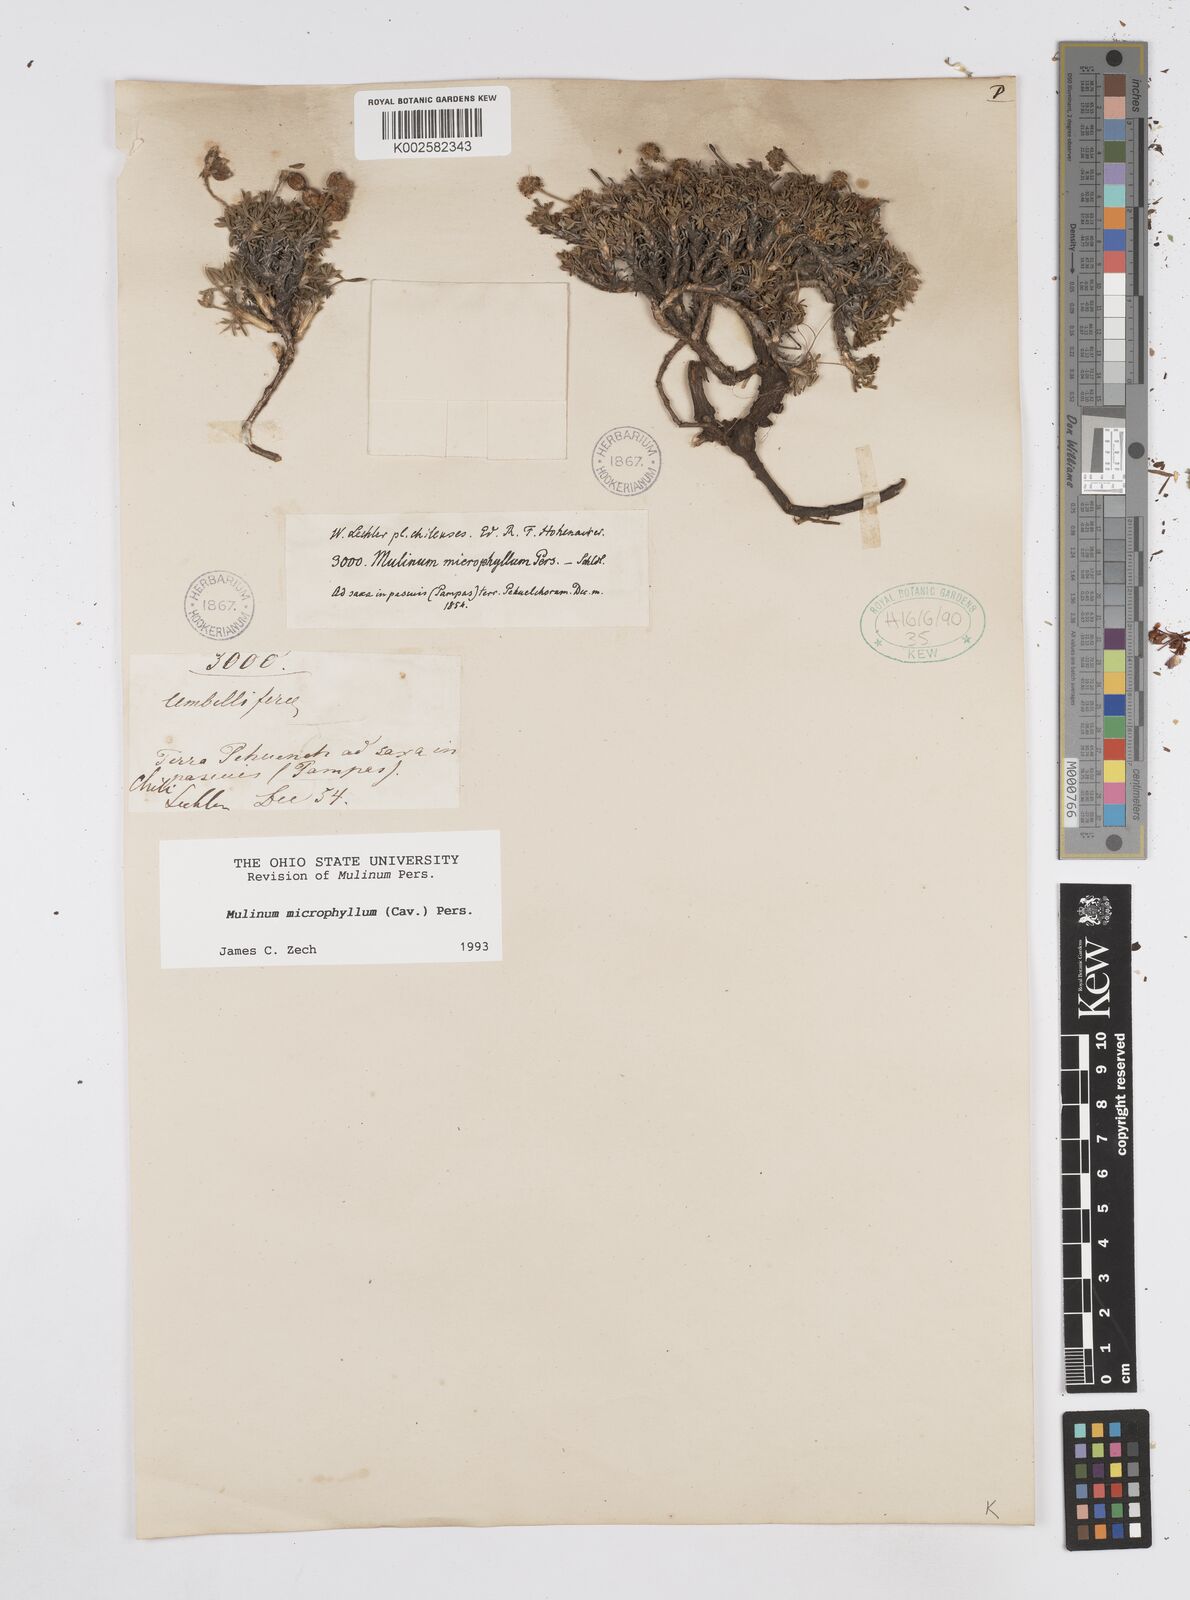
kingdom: Plantae
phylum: Tracheophyta
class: Magnoliopsida
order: Apiales
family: Apiaceae
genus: Azorella
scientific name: Azorella microphylla
